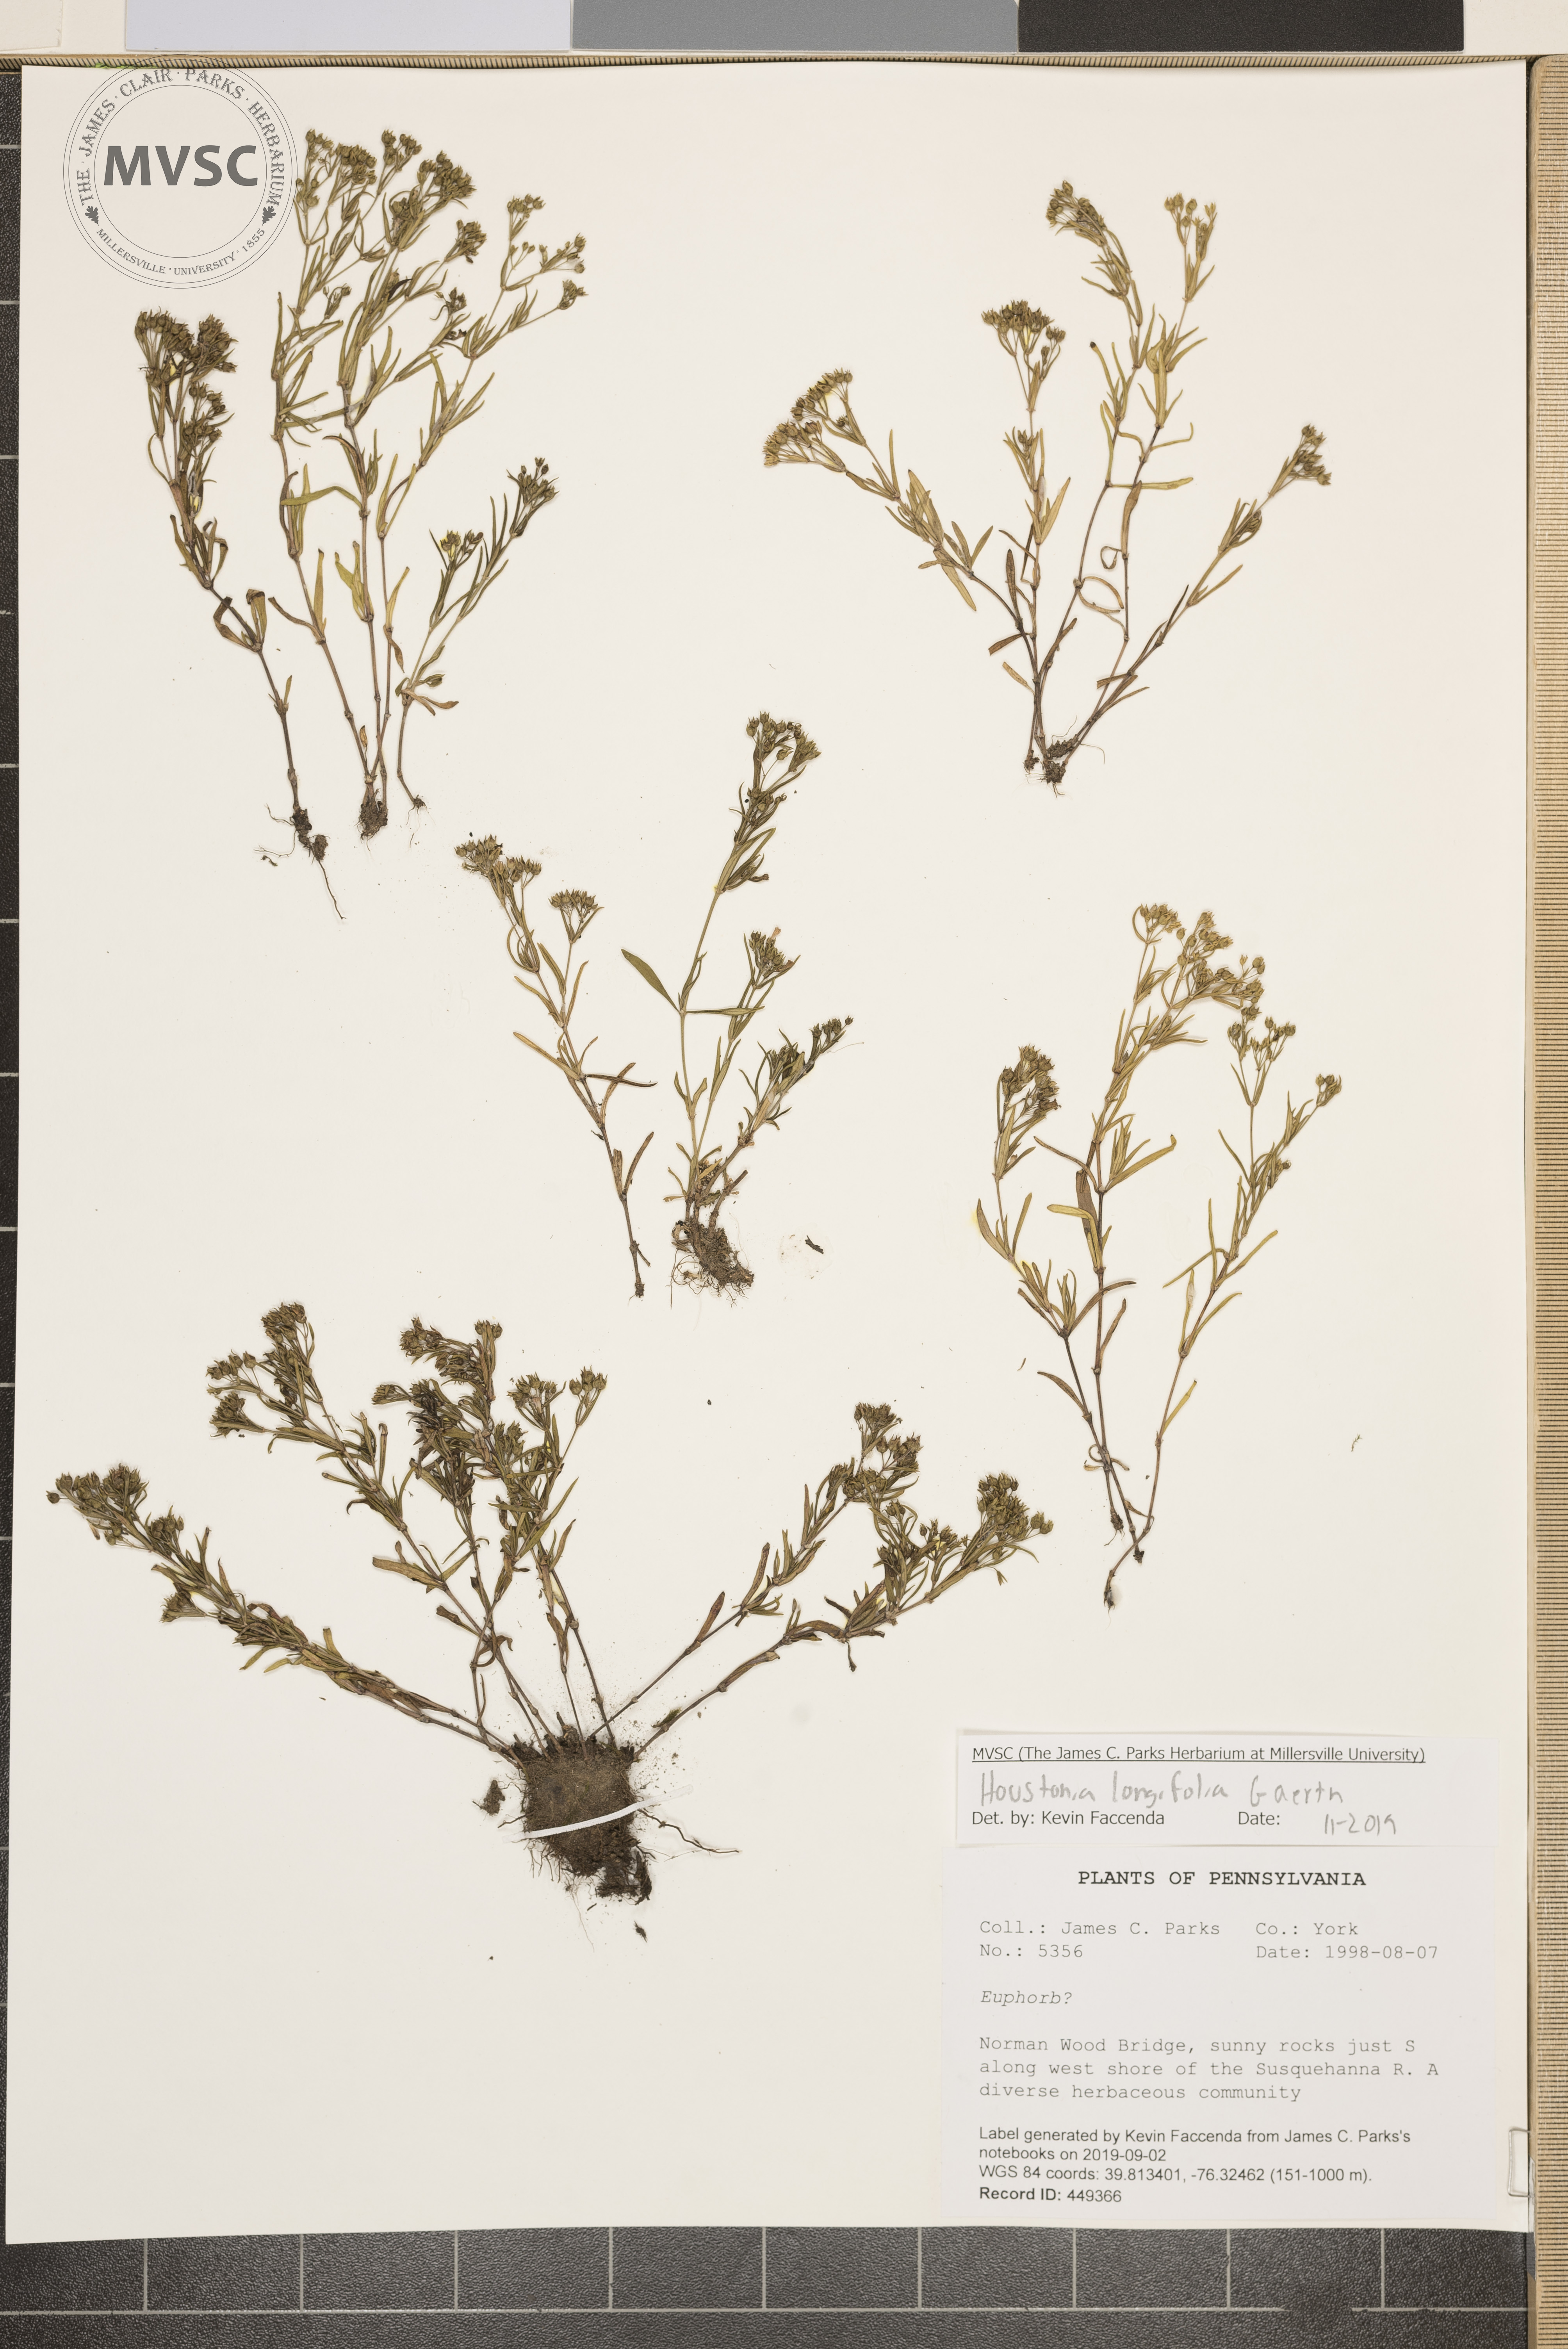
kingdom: Plantae
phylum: Tracheophyta
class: Magnoliopsida
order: Gentianales
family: Rubiaceae
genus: Houstonia
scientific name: Houstonia longifolia
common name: Long-leaved bluets
